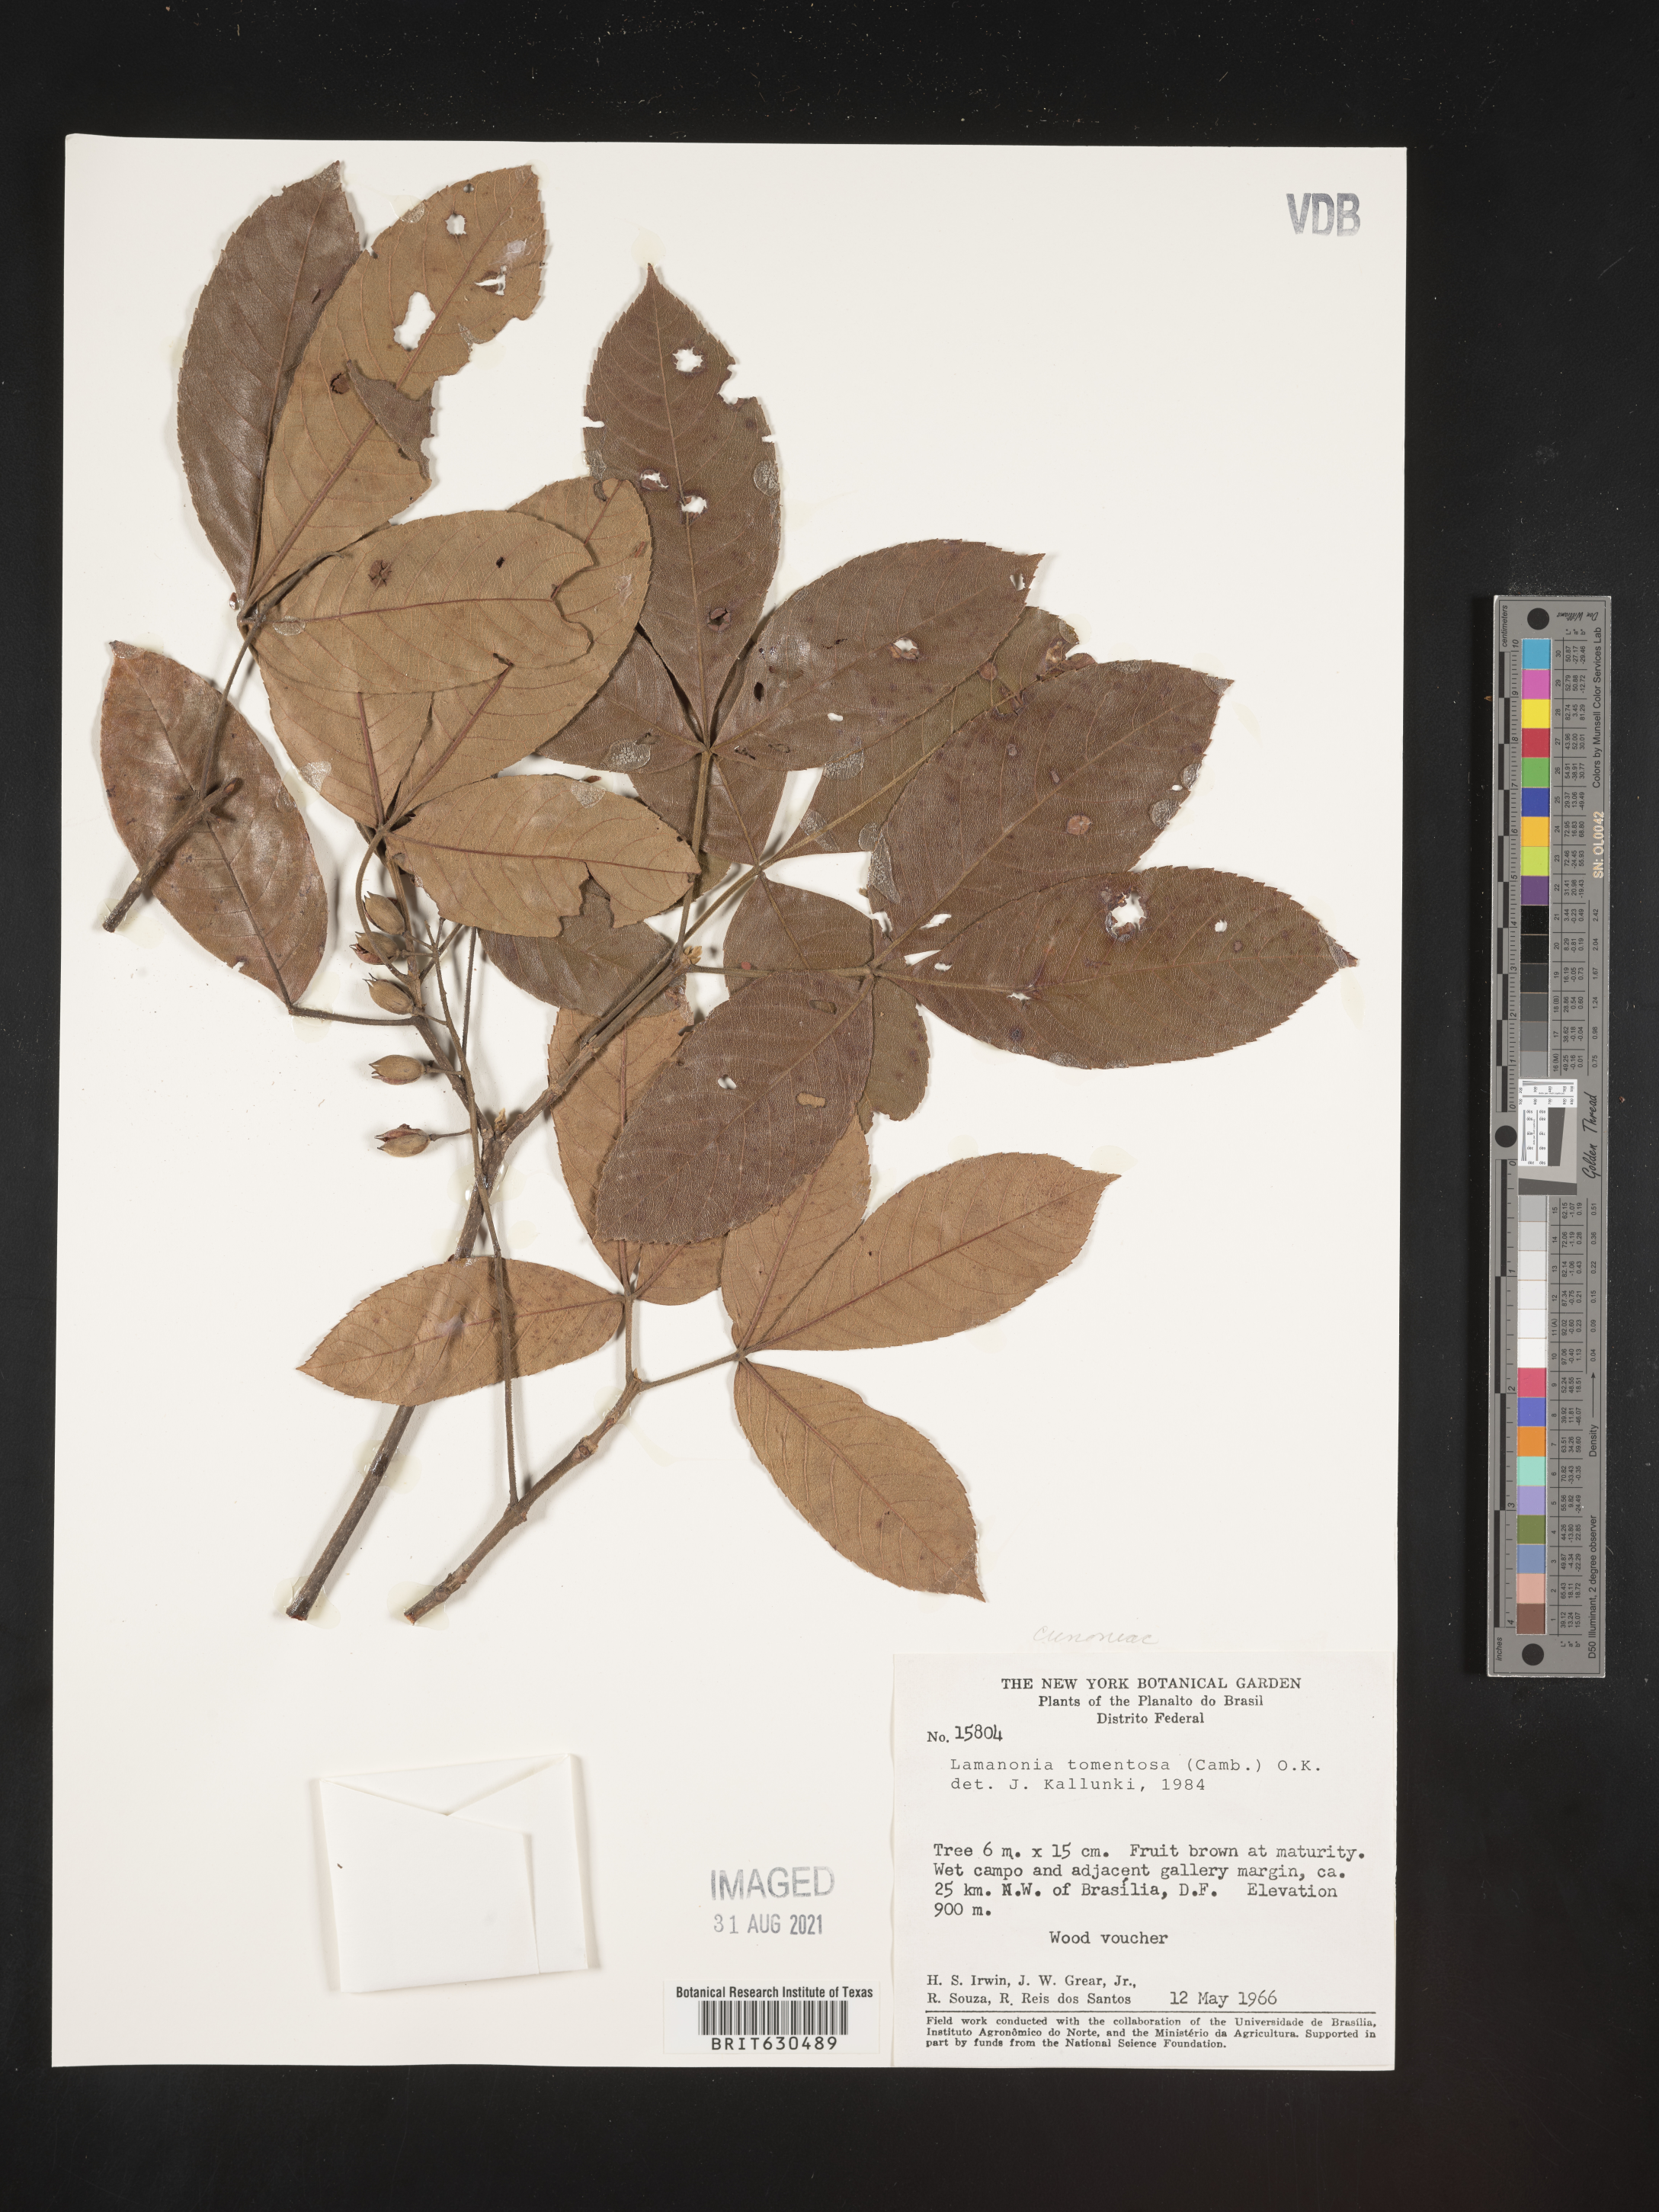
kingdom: Plantae
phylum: Tracheophyta
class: Magnoliopsida
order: Oxalidales
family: Cunoniaceae
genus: Lamanonia
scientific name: Lamanonia ternata
